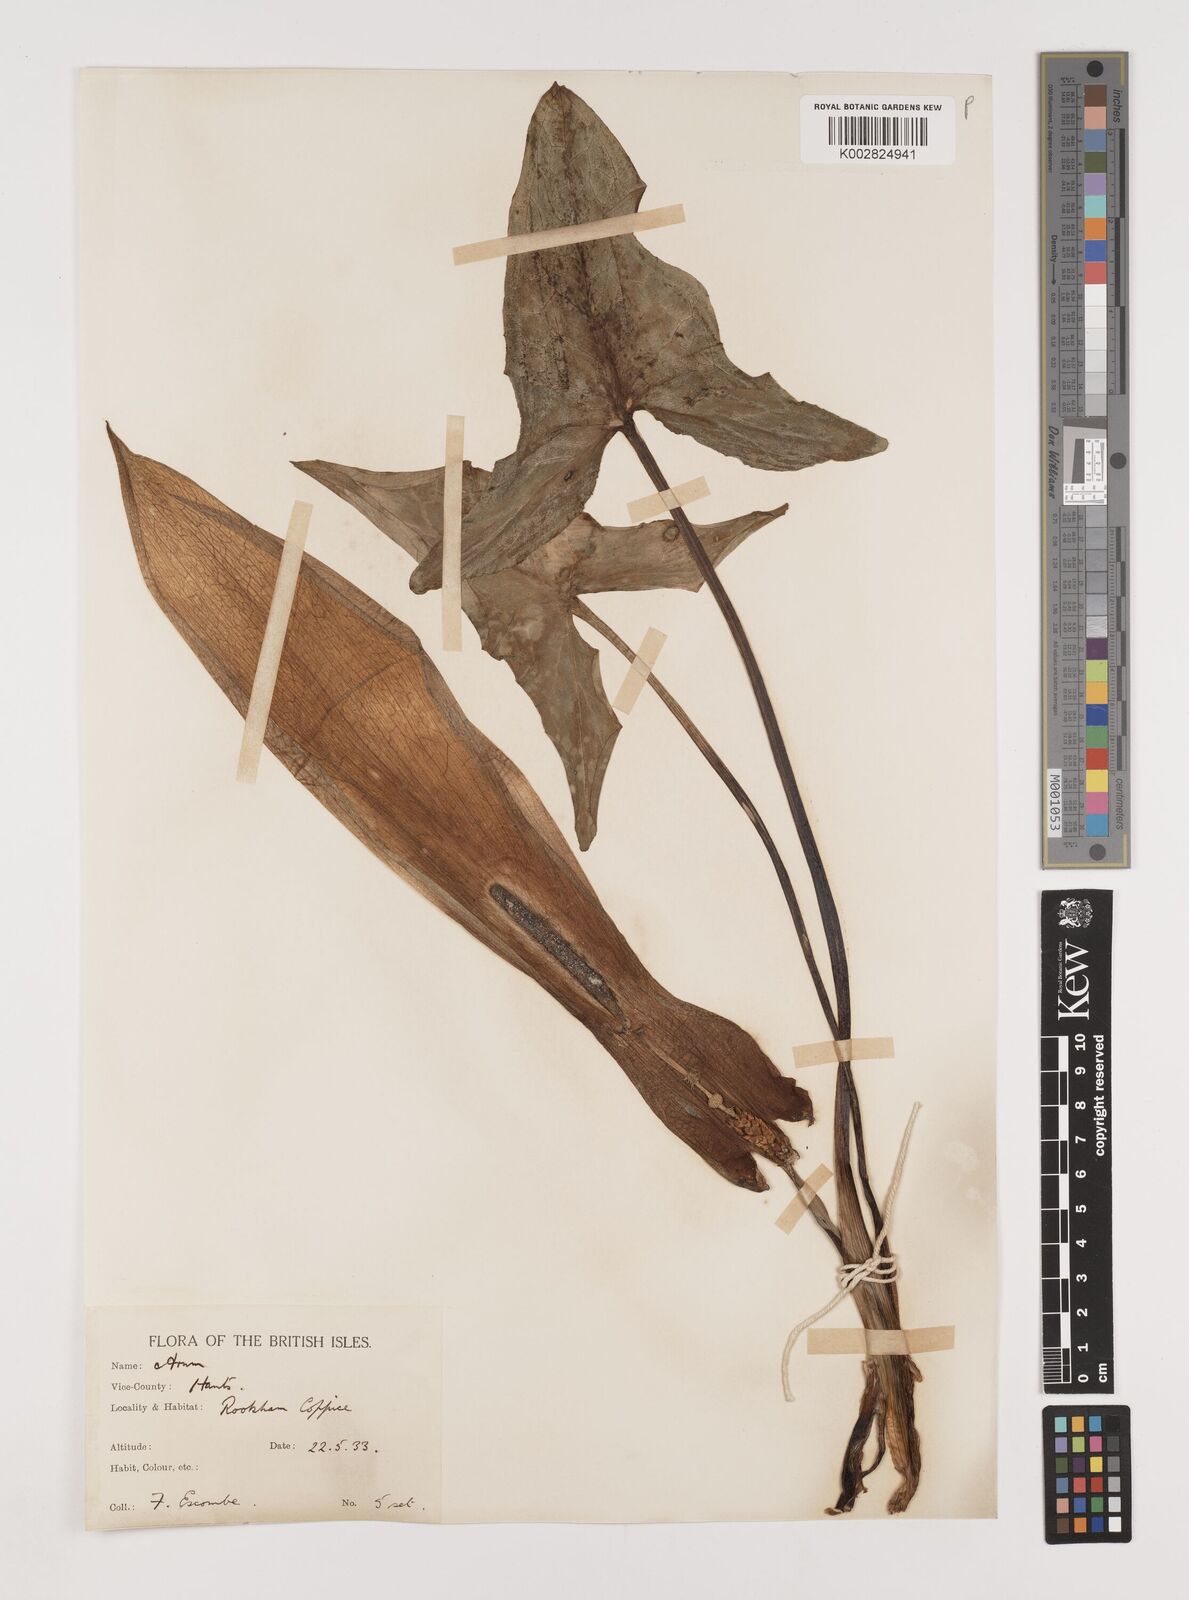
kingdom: Plantae
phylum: Tracheophyta
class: Liliopsida
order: Alismatales
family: Araceae
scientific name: Araceae
